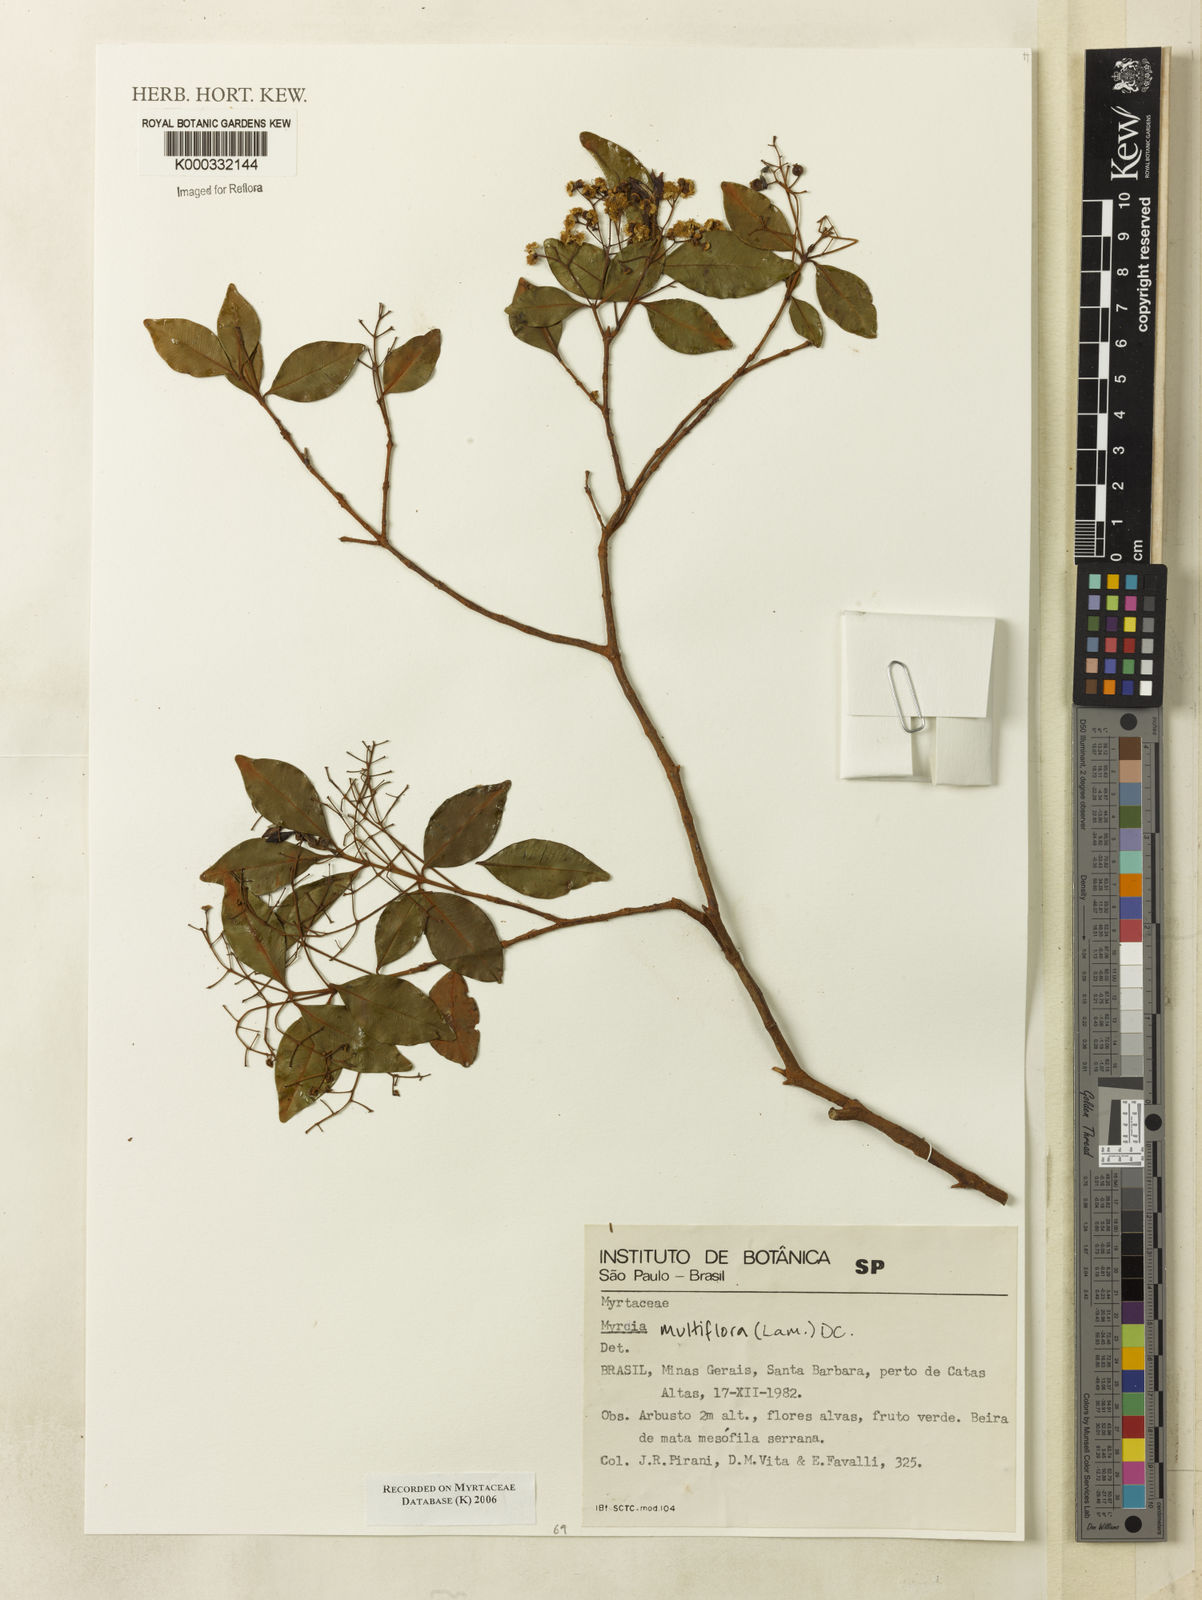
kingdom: Plantae
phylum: Tracheophyta
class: Magnoliopsida
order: Myrtales
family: Myrtaceae
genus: Myrcia
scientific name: Myrcia
